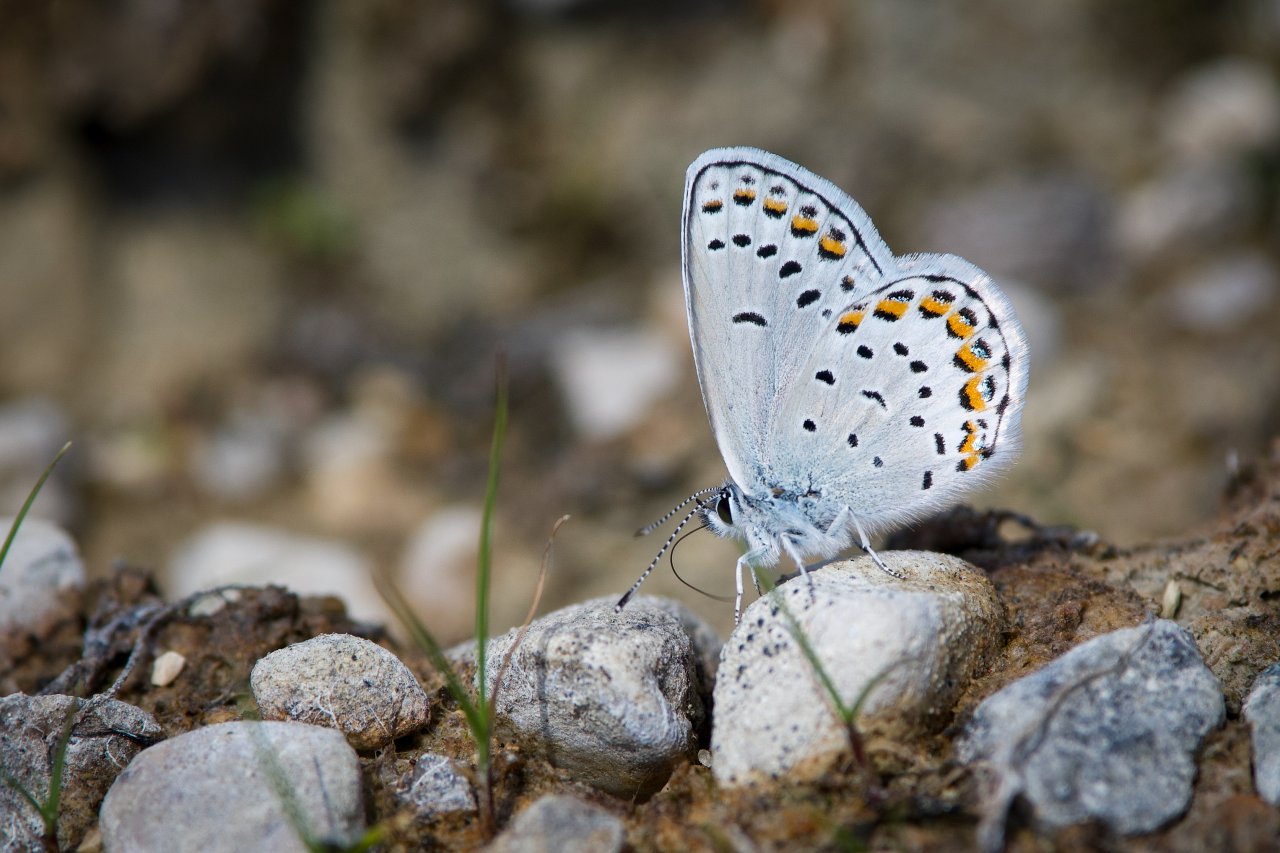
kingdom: Animalia
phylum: Arthropoda
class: Insecta
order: Lepidoptera
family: Lycaenidae
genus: Lycaeides
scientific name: Lycaeides idas
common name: Northern Blue
